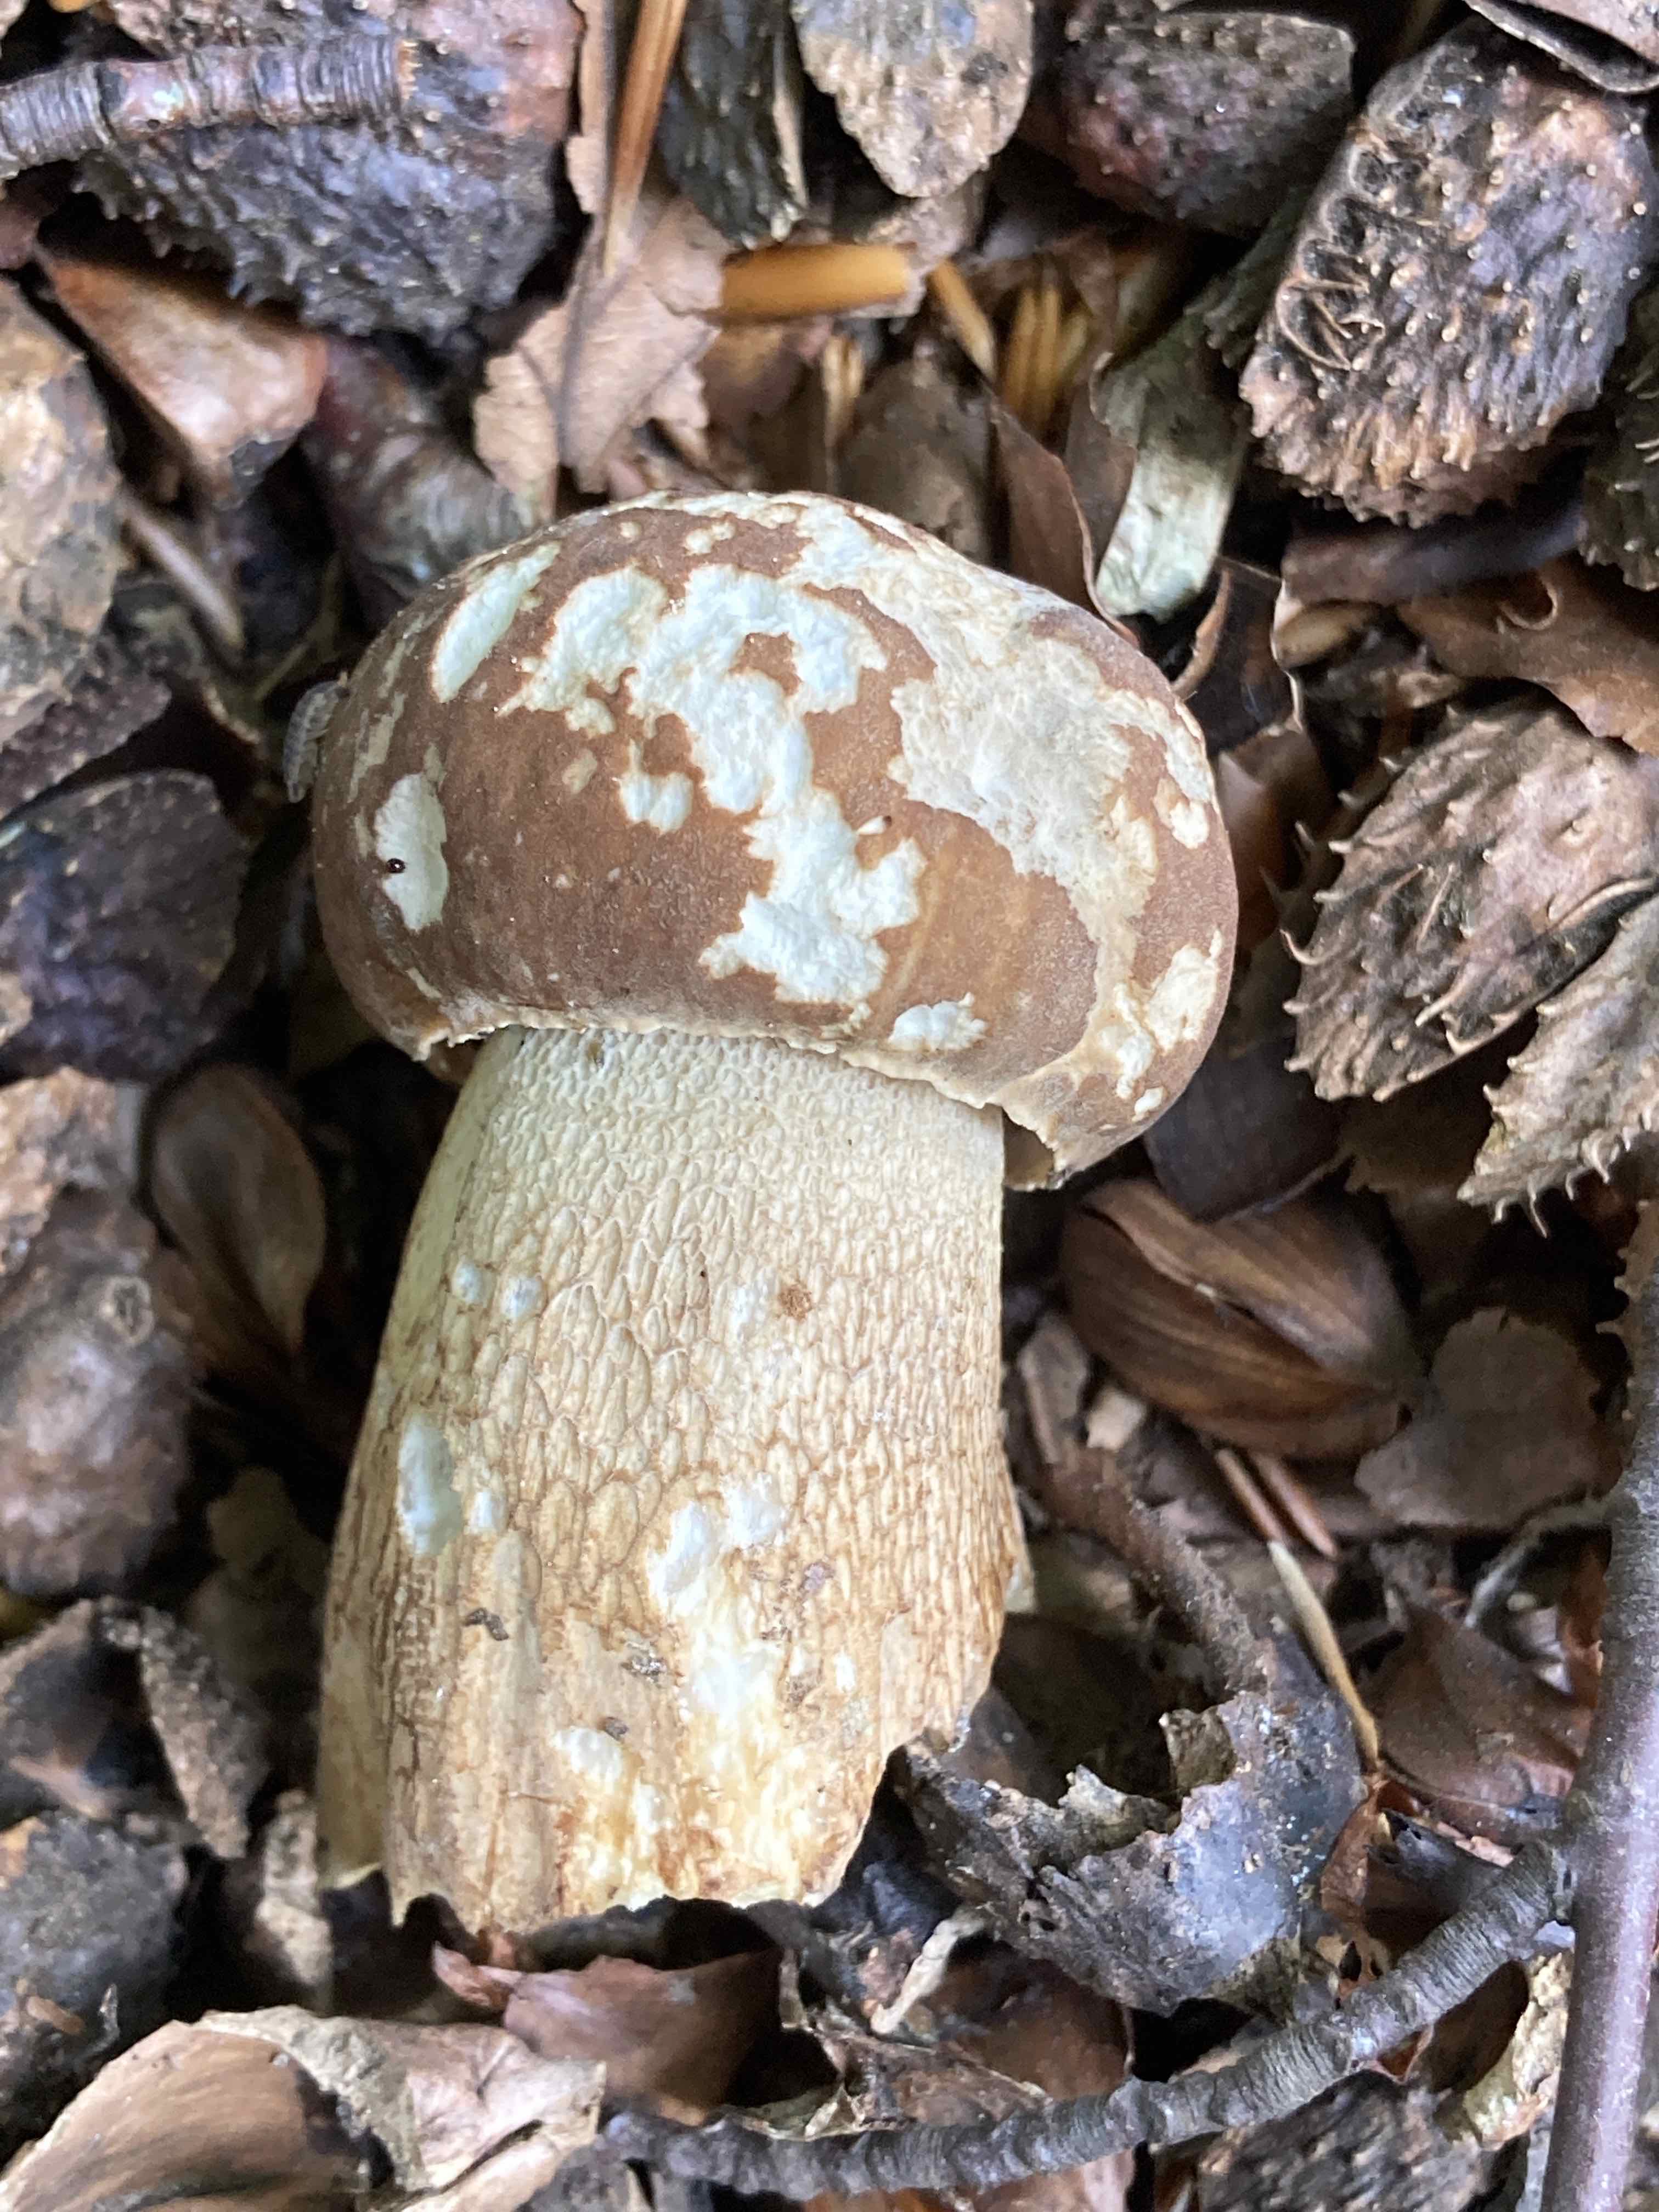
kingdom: Fungi
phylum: Basidiomycota
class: Agaricomycetes
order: Boletales
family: Boletaceae
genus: Boletus
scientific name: Boletus reticulatus
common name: sommer-rørhat
